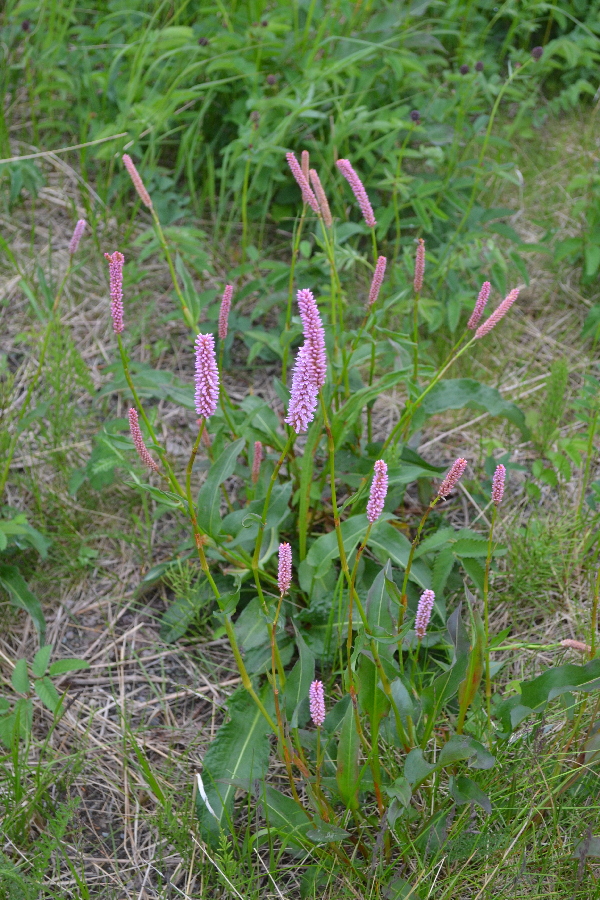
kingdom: Plantae
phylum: Tracheophyta
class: Magnoliopsida
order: Caryophyllales
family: Polygonaceae
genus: Bistorta
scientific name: Bistorta officinalis
